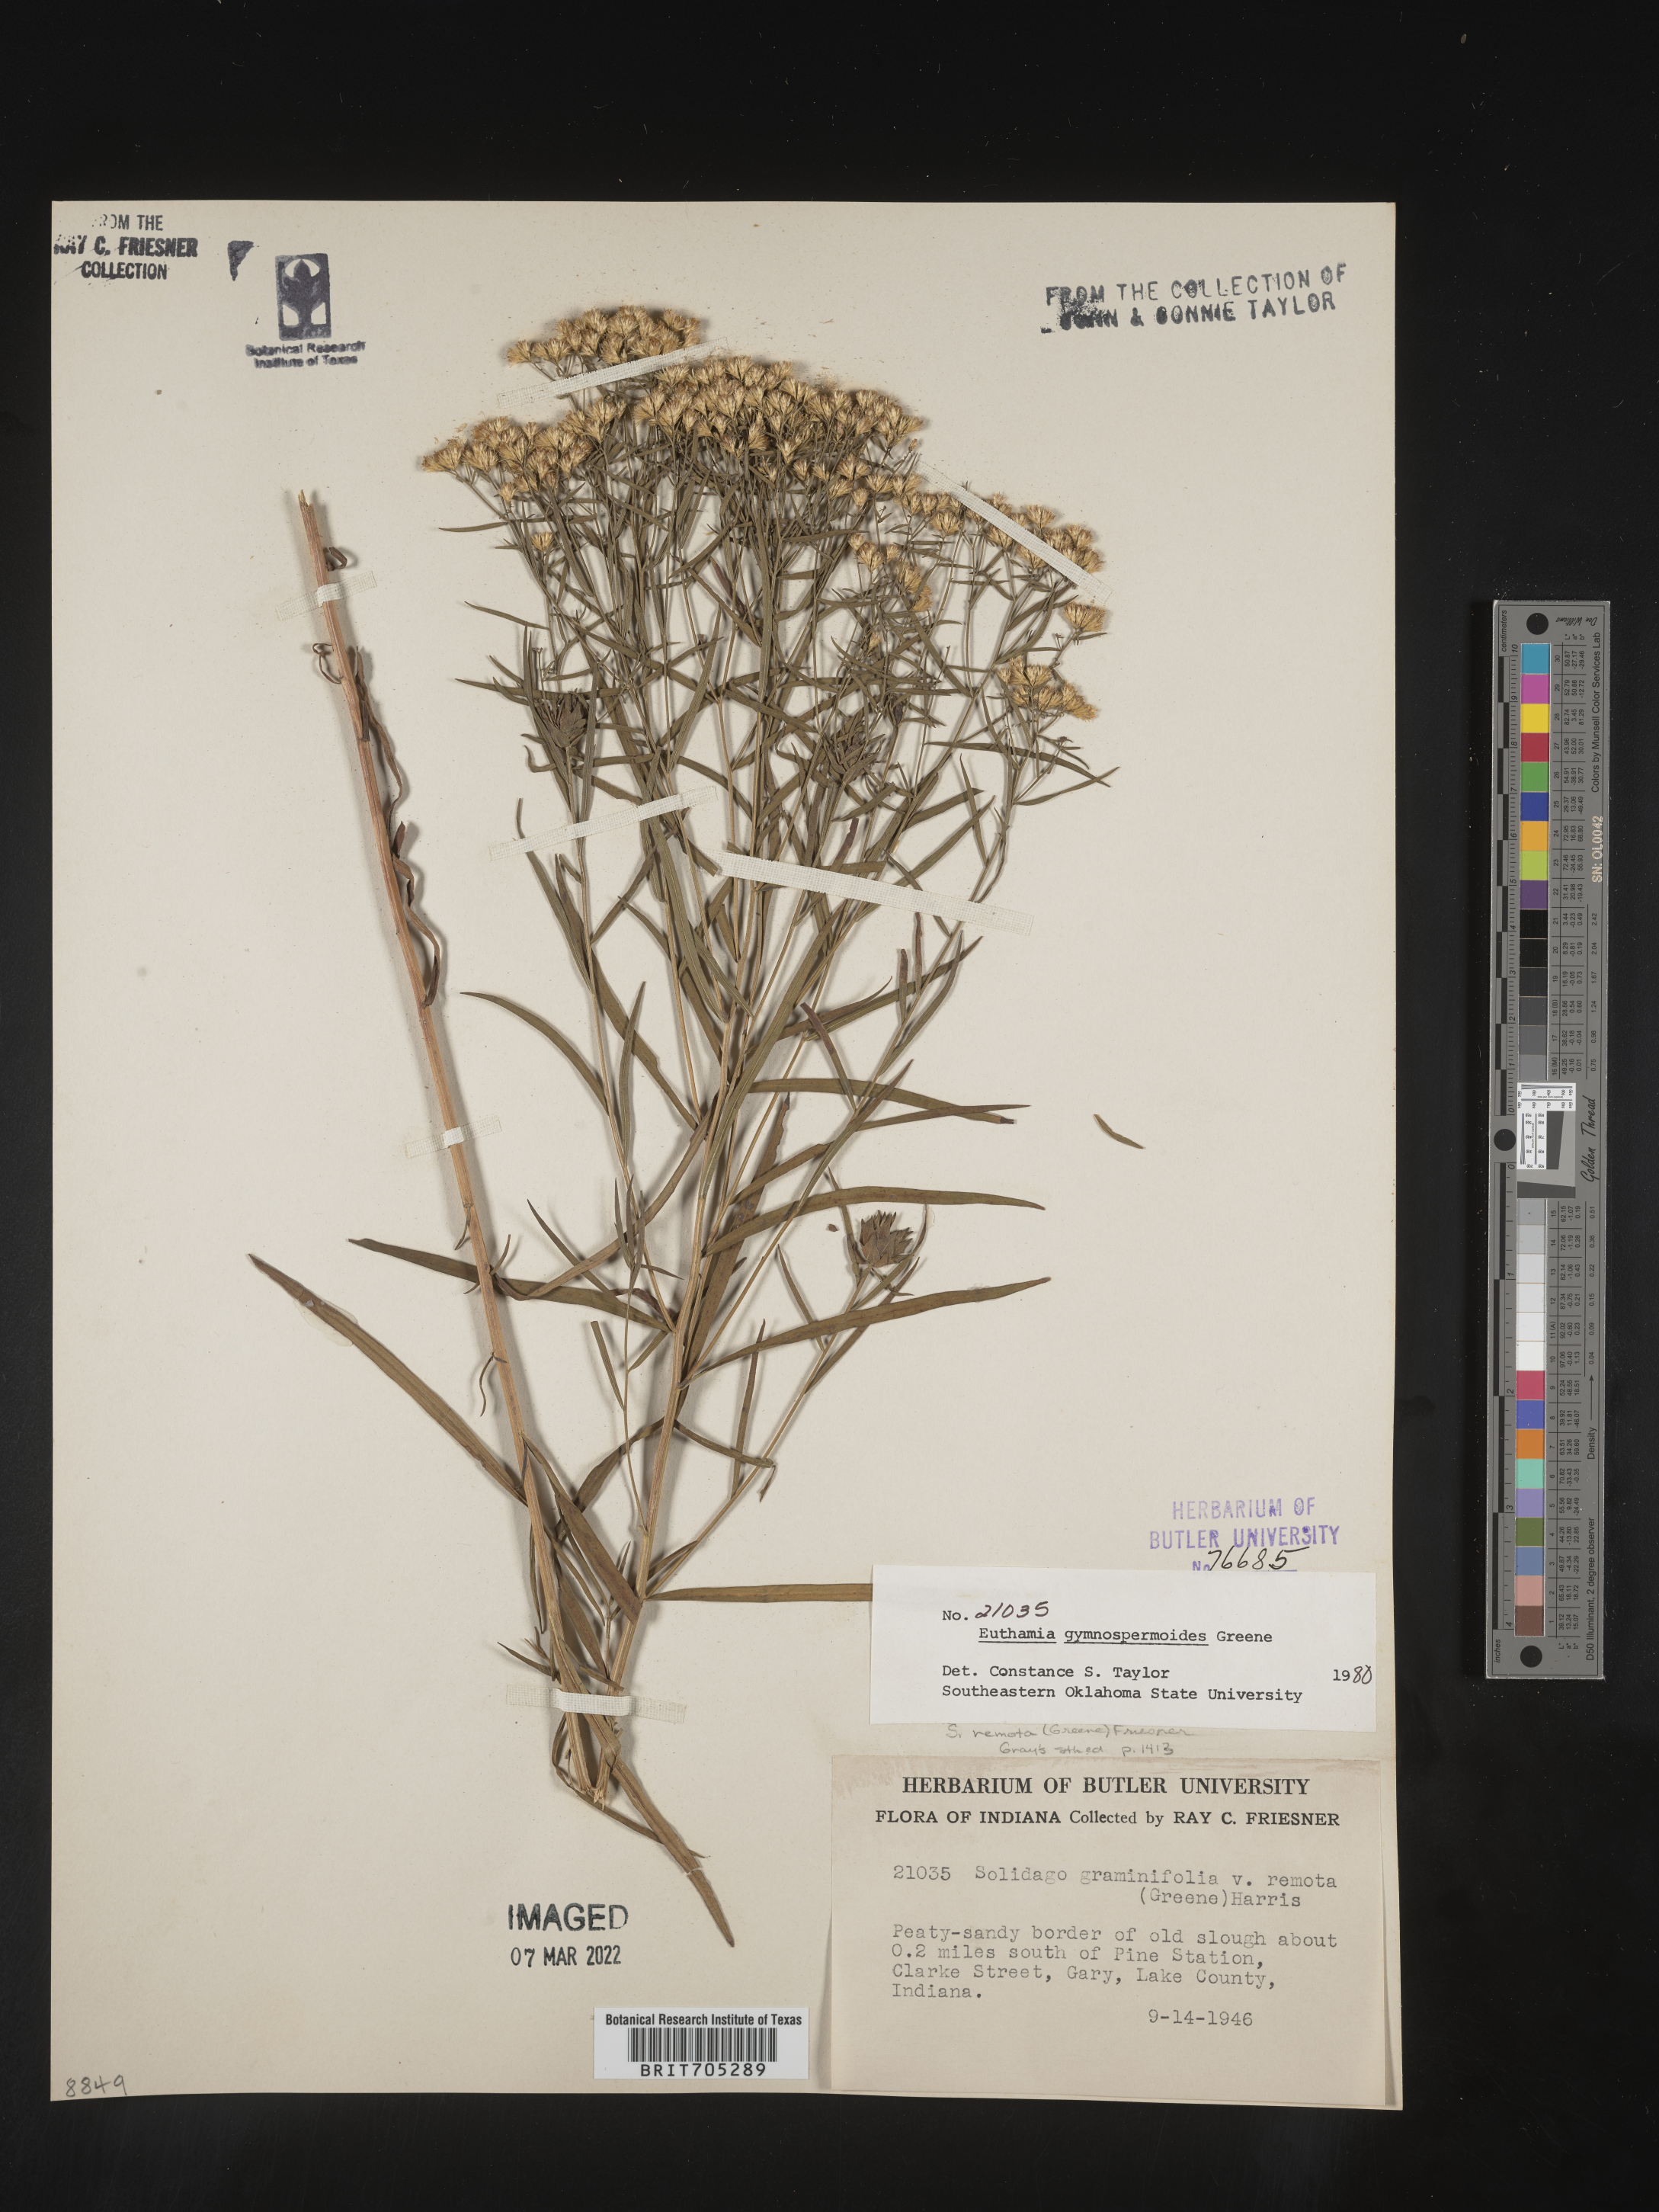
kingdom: Plantae
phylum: Tracheophyta
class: Magnoliopsida
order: Asterales
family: Asteraceae
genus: Euthamia
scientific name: Euthamia gymnospermoides
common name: Great plains goldentop
